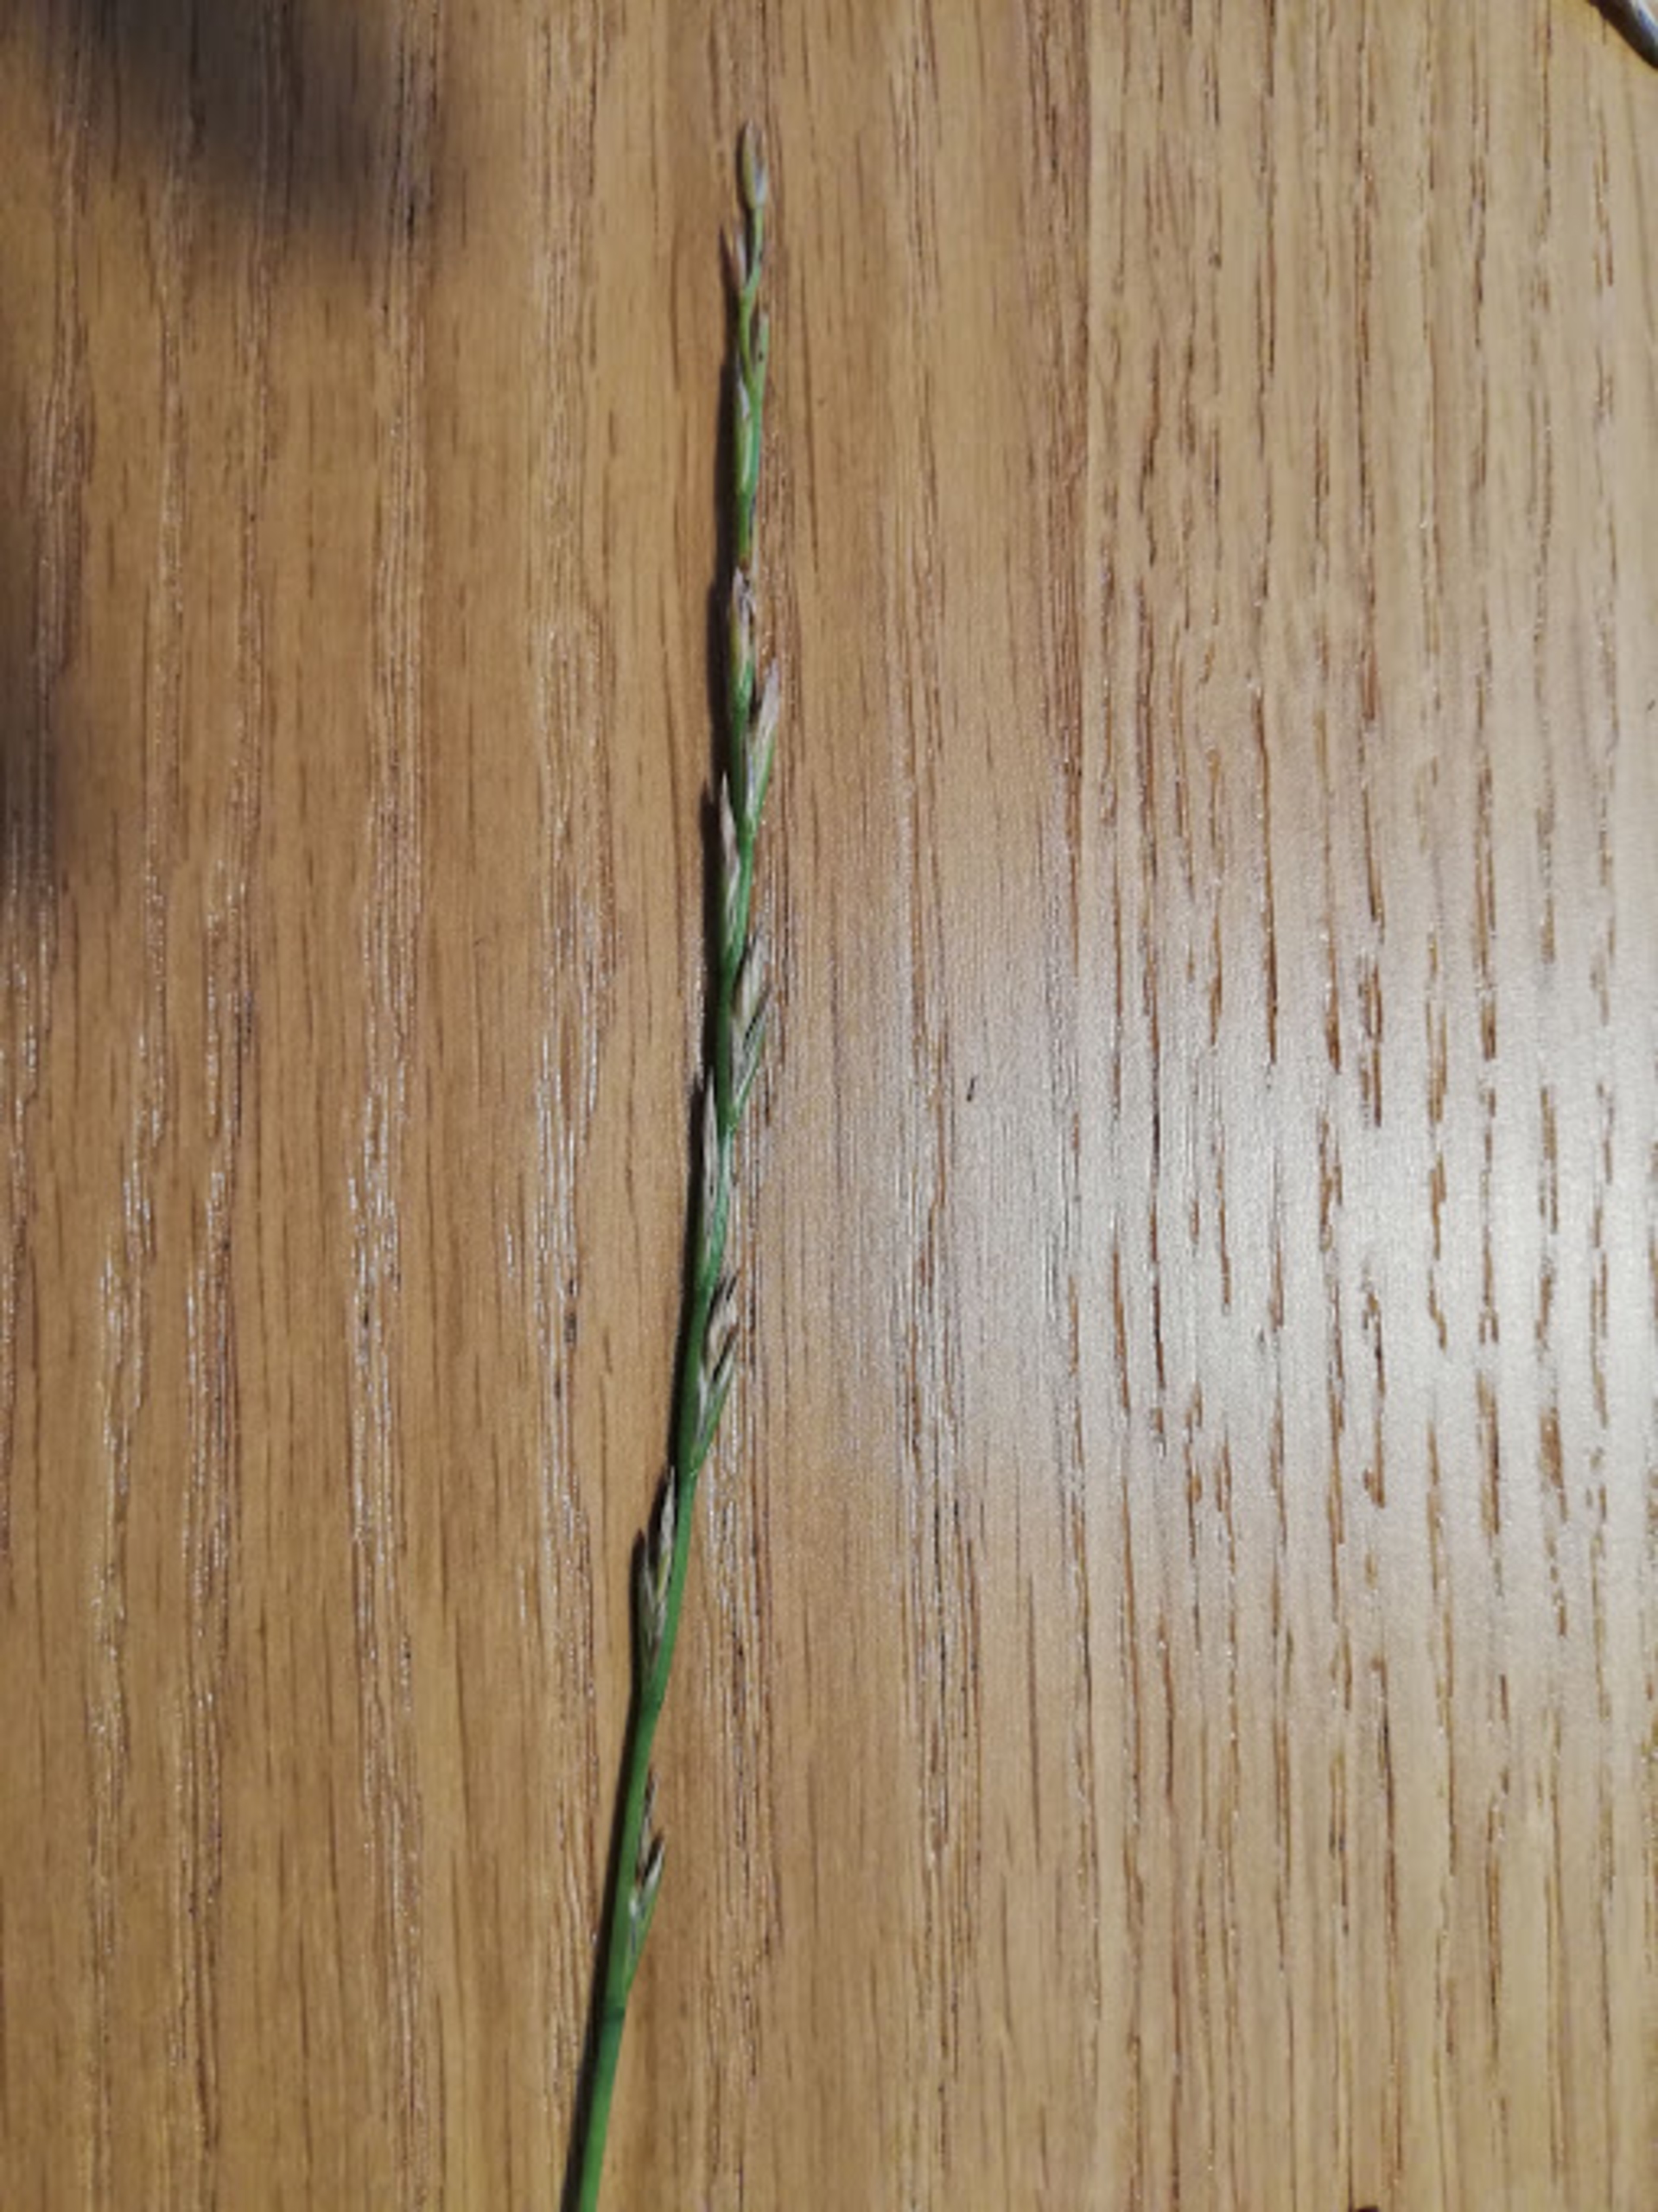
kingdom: Plantae
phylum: Tracheophyta
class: Liliopsida
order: Poales
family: Poaceae
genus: Lolium
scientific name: Lolium perenne
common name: Almindelig rajgræs
